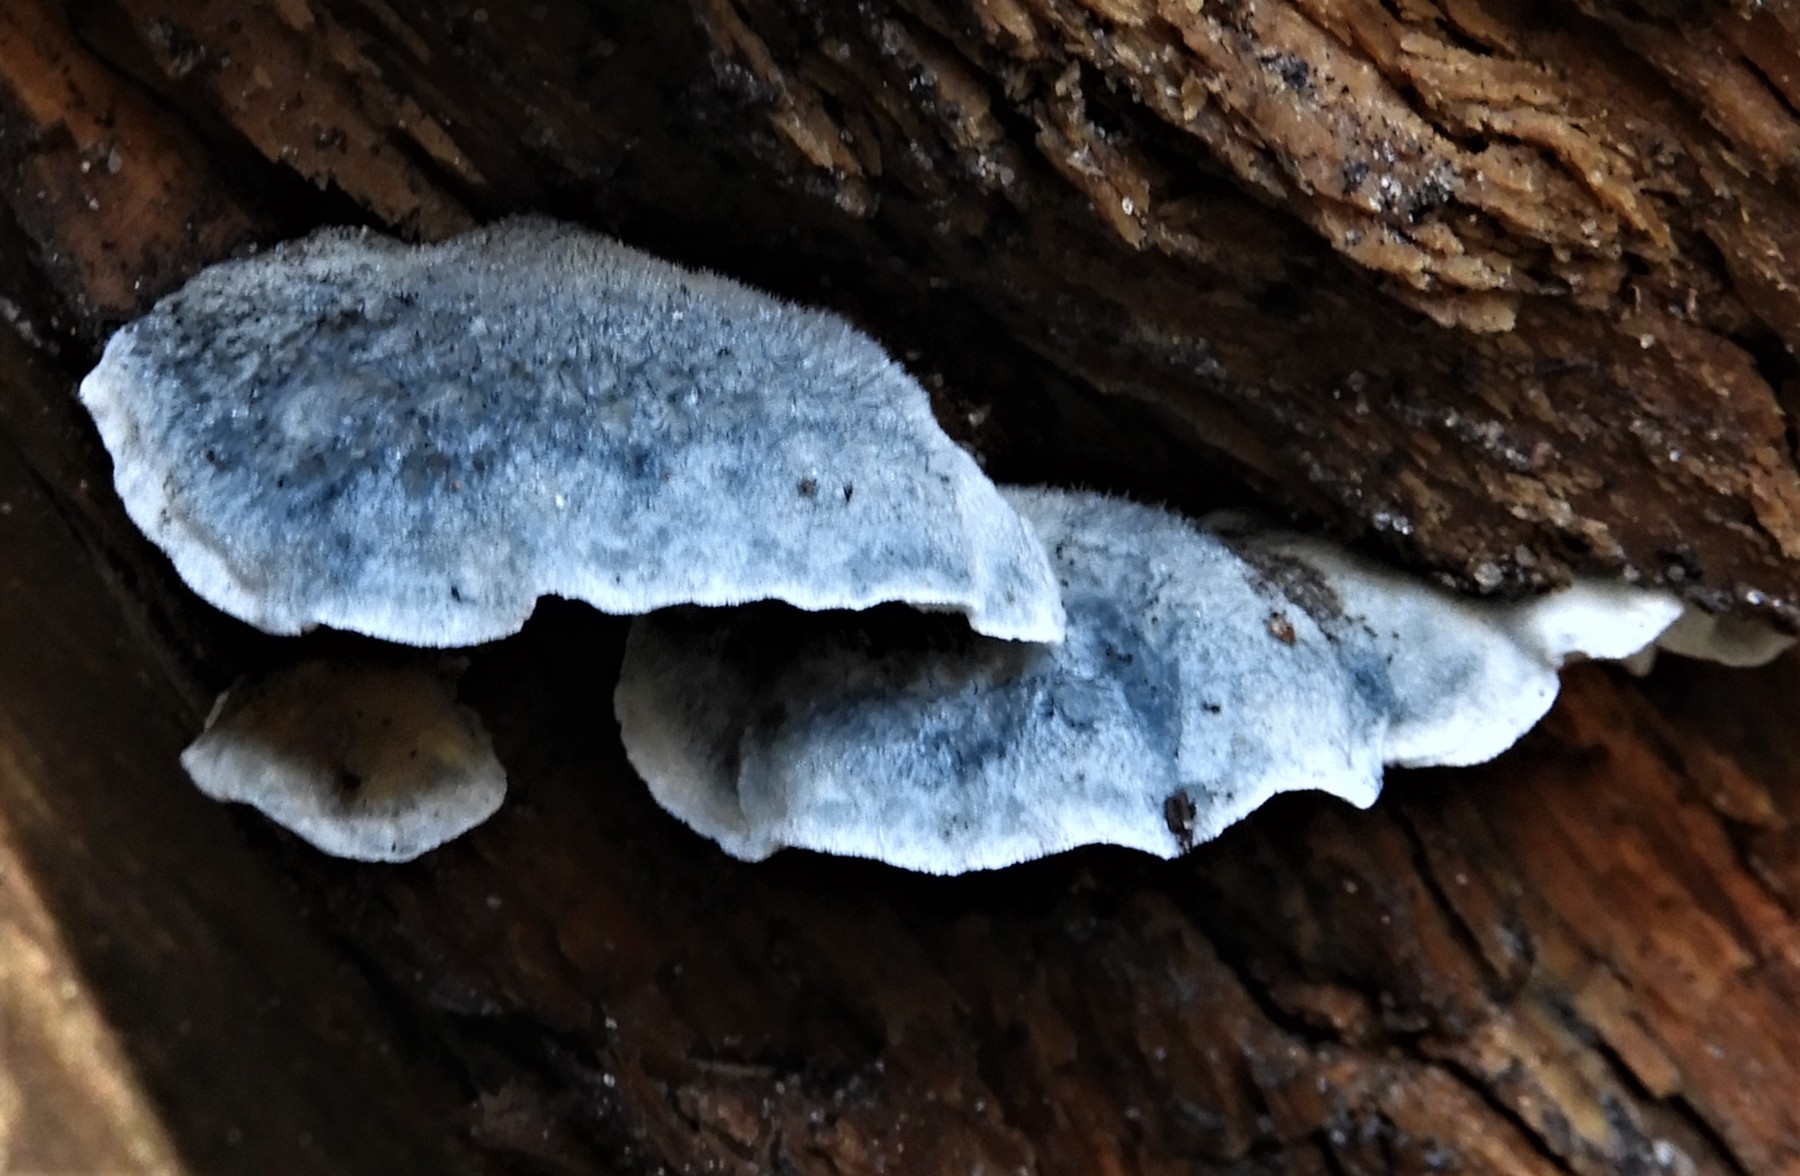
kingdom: Fungi
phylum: Basidiomycota
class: Agaricomycetes
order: Polyporales
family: Polyporaceae
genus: Cyanosporus
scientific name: Cyanosporus caesius
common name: blålig kødporesvamp
